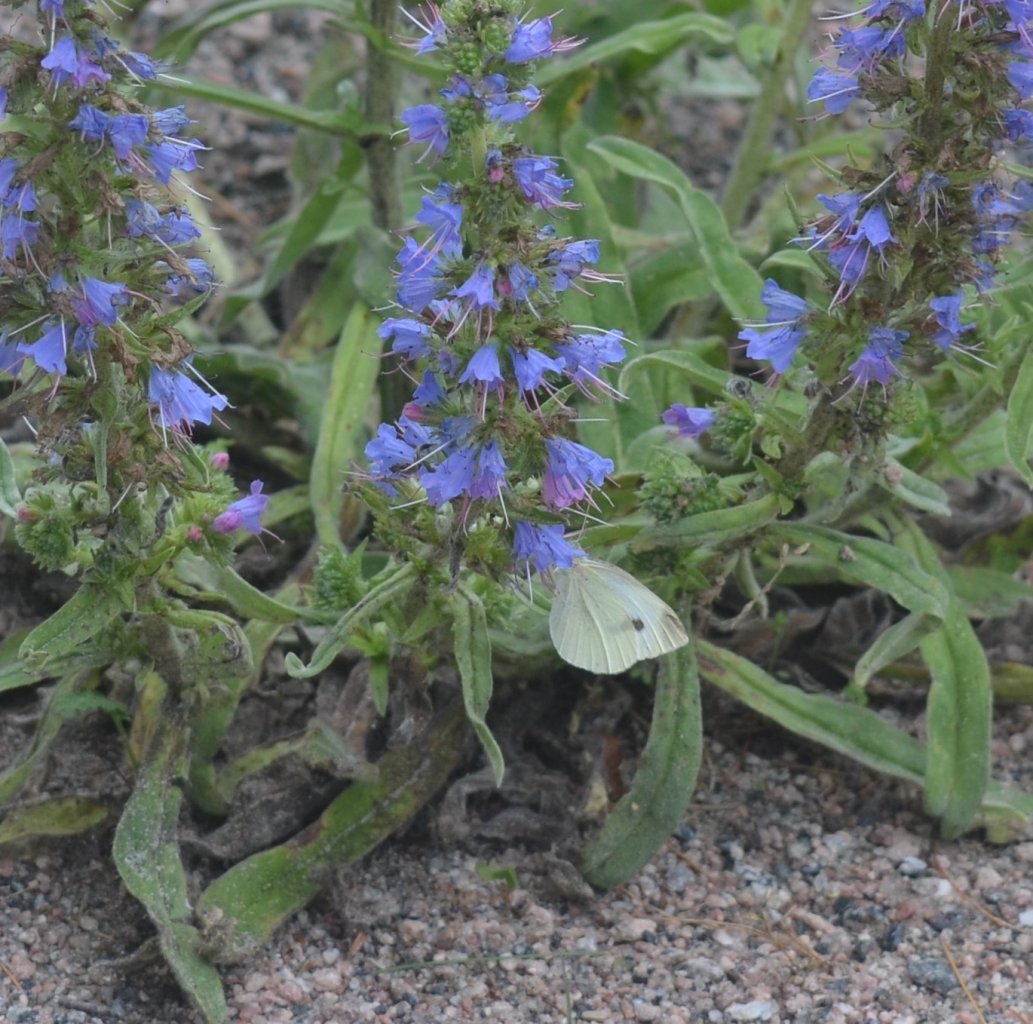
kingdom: Animalia
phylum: Arthropoda
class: Insecta
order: Lepidoptera
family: Pieridae
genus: Pieris
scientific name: Pieris rapae
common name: Cabbage White
